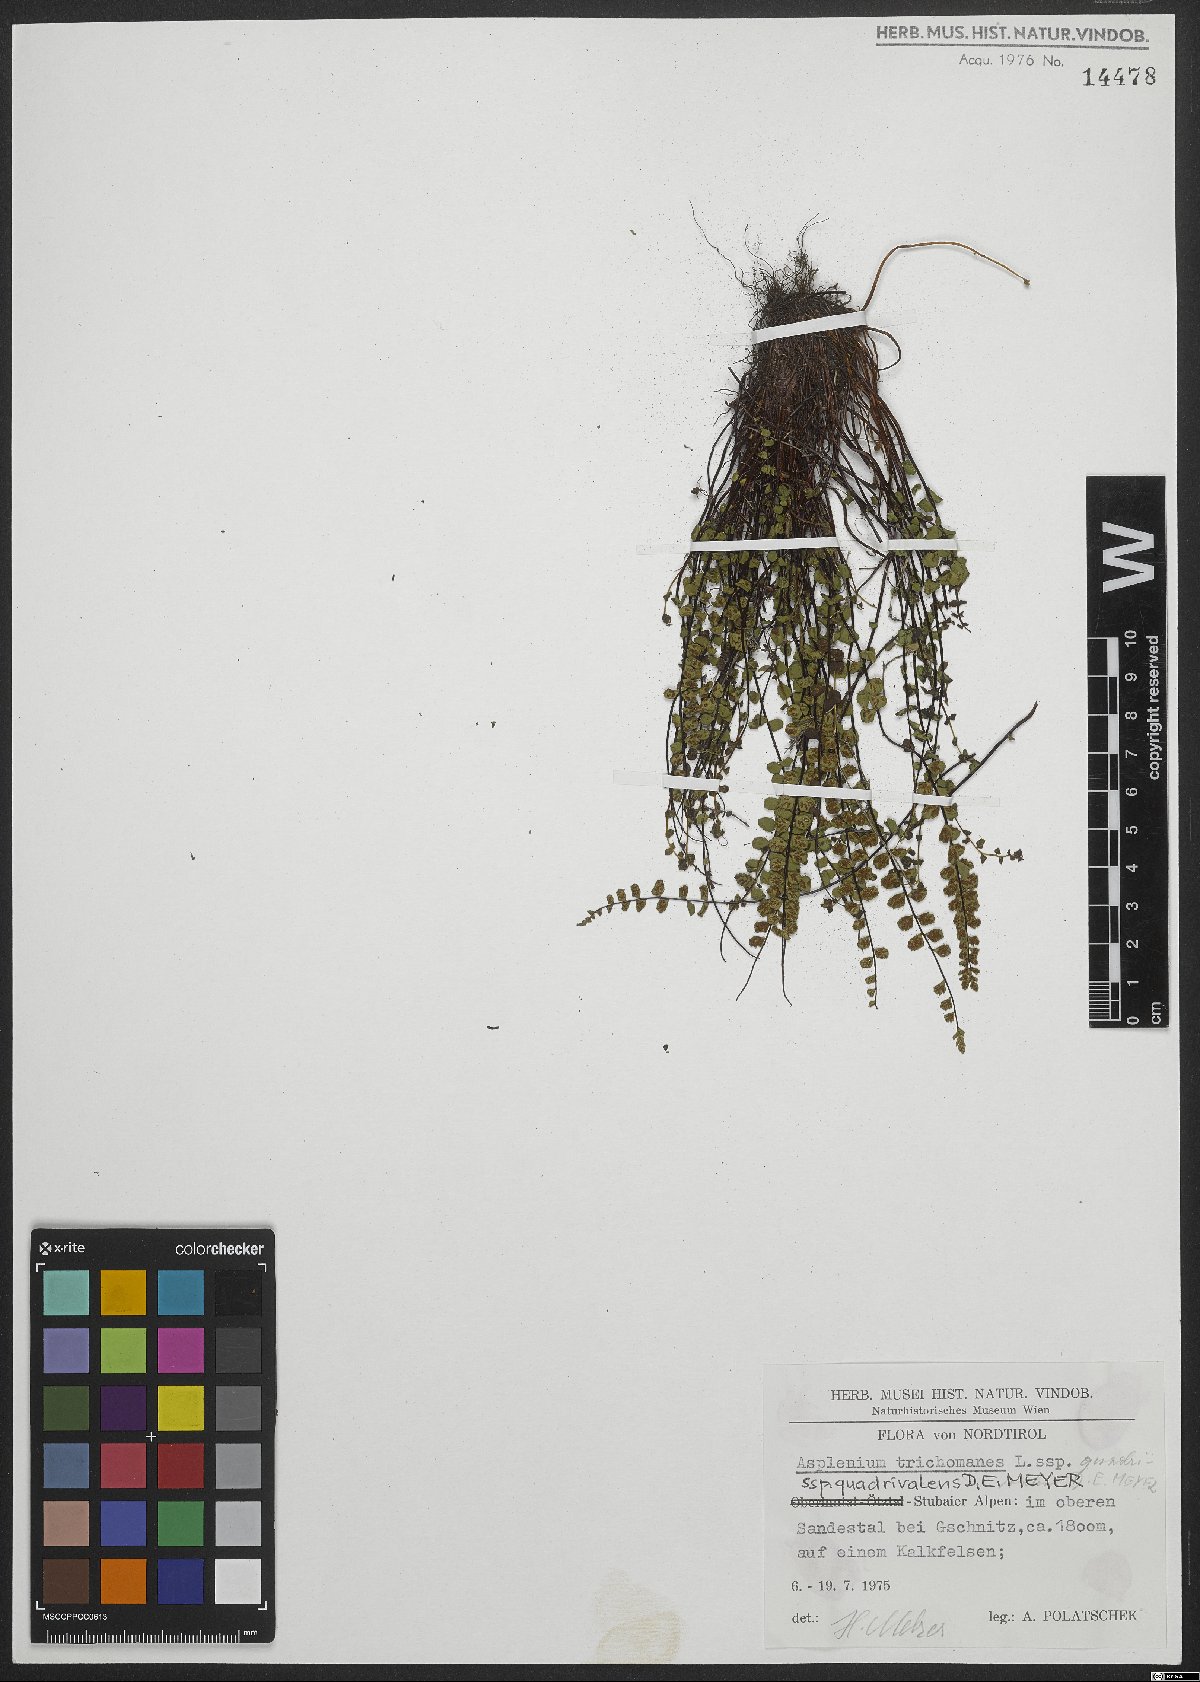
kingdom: Plantae
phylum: Tracheophyta
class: Polypodiopsida
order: Polypodiales
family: Aspleniaceae
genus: Asplenium
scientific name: Asplenium quadrivalens
